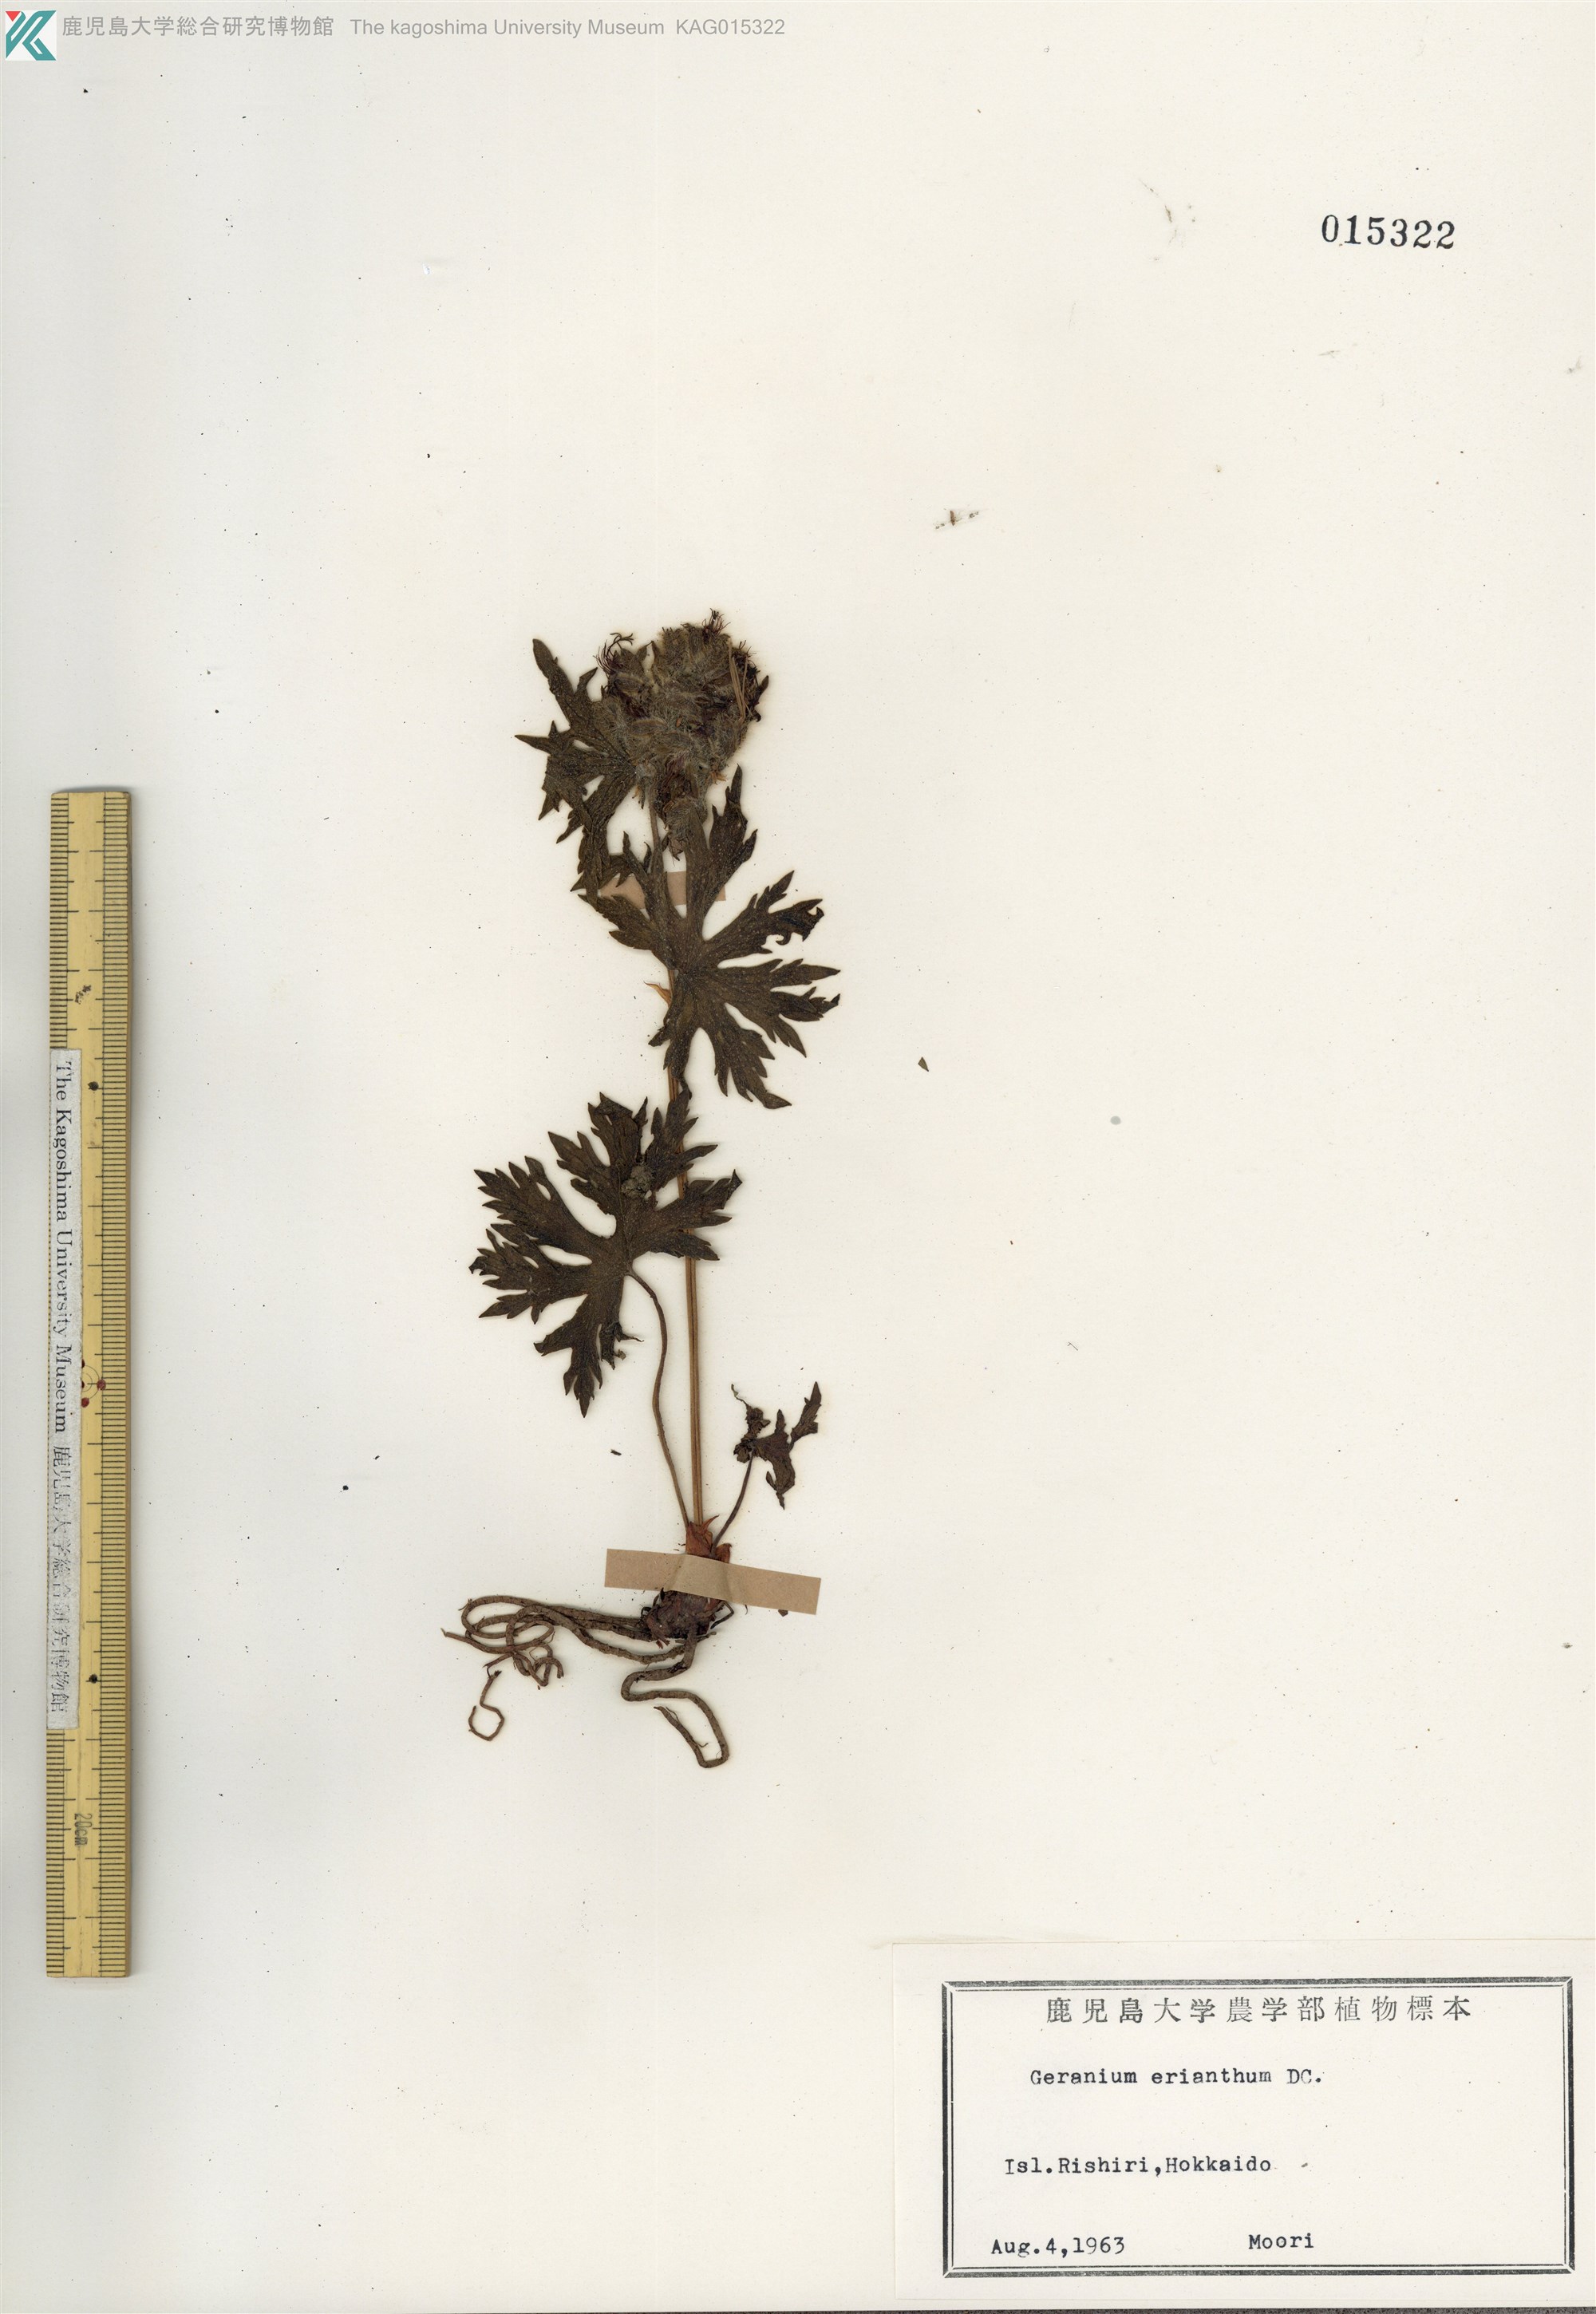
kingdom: Plantae
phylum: Tracheophyta
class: Magnoliopsida
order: Geraniales
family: Geraniaceae
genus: Geranium
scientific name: Geranium erianthum
